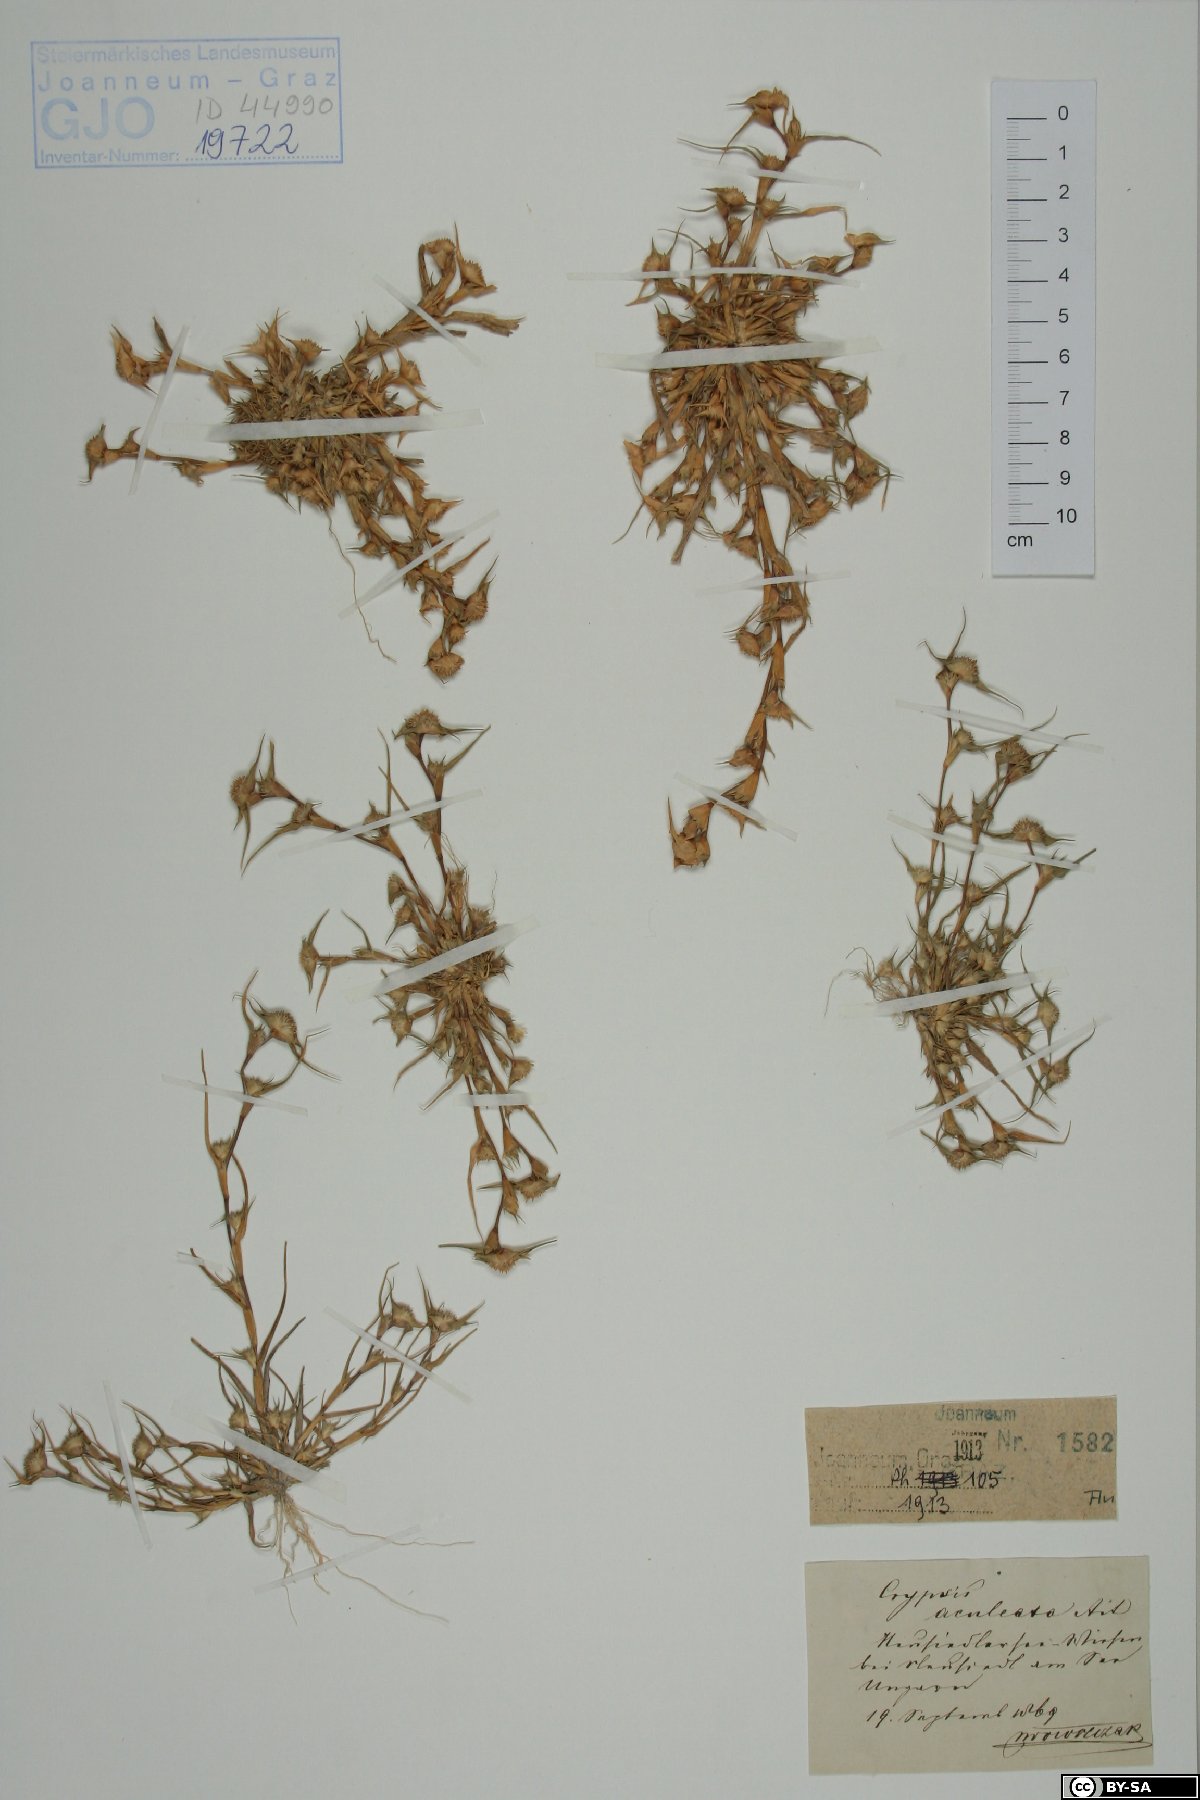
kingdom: Plantae
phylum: Tracheophyta
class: Liliopsida
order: Poales
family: Poaceae
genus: Sporobolus
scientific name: Sporobolus aculeatus
